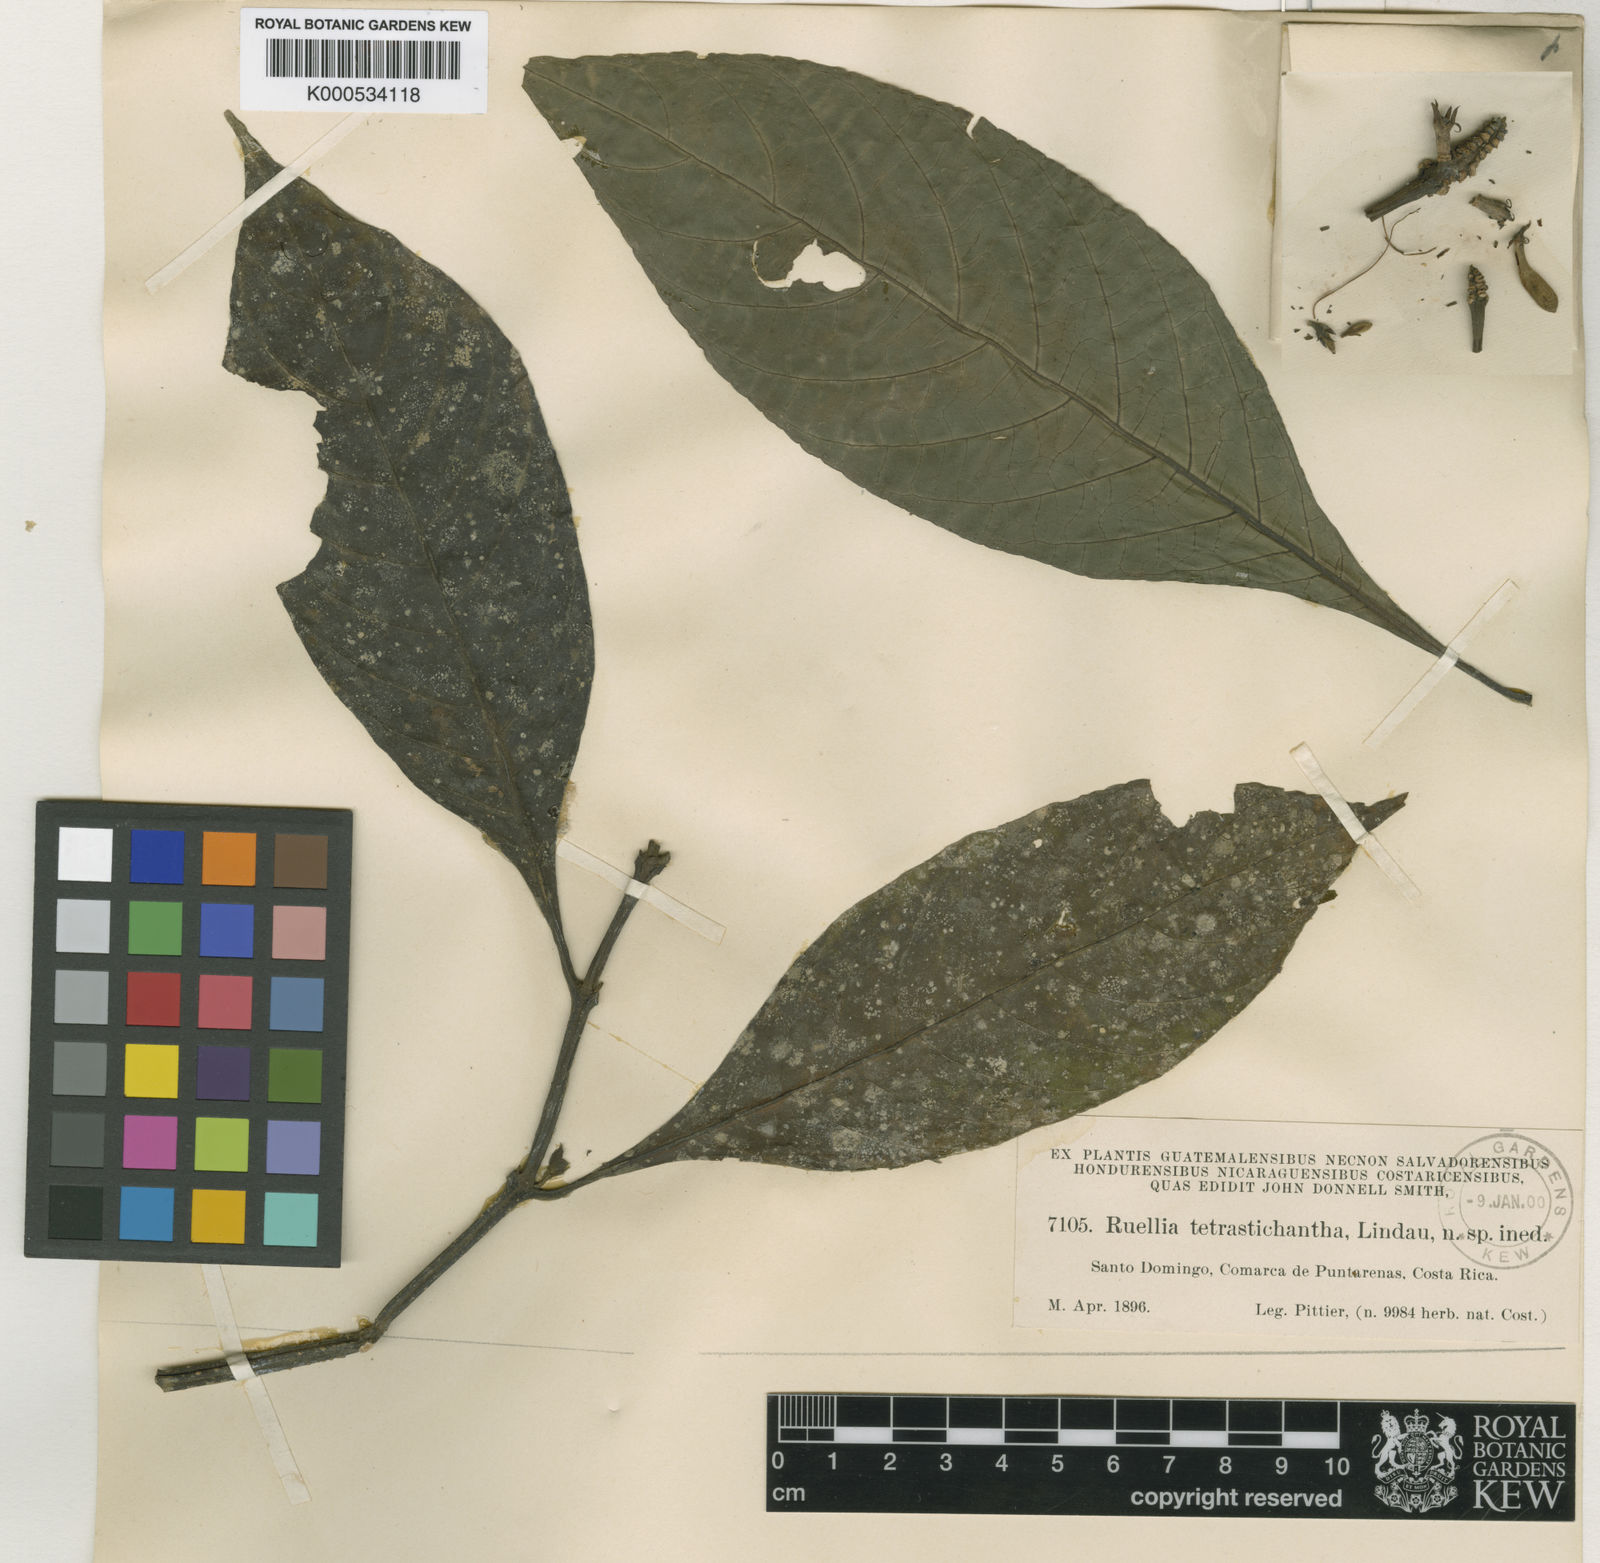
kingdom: Plantae
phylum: Tracheophyta
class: Magnoliopsida
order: Lamiales
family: Acanthaceae
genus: Ruellia
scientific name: Ruellia tubiflora
